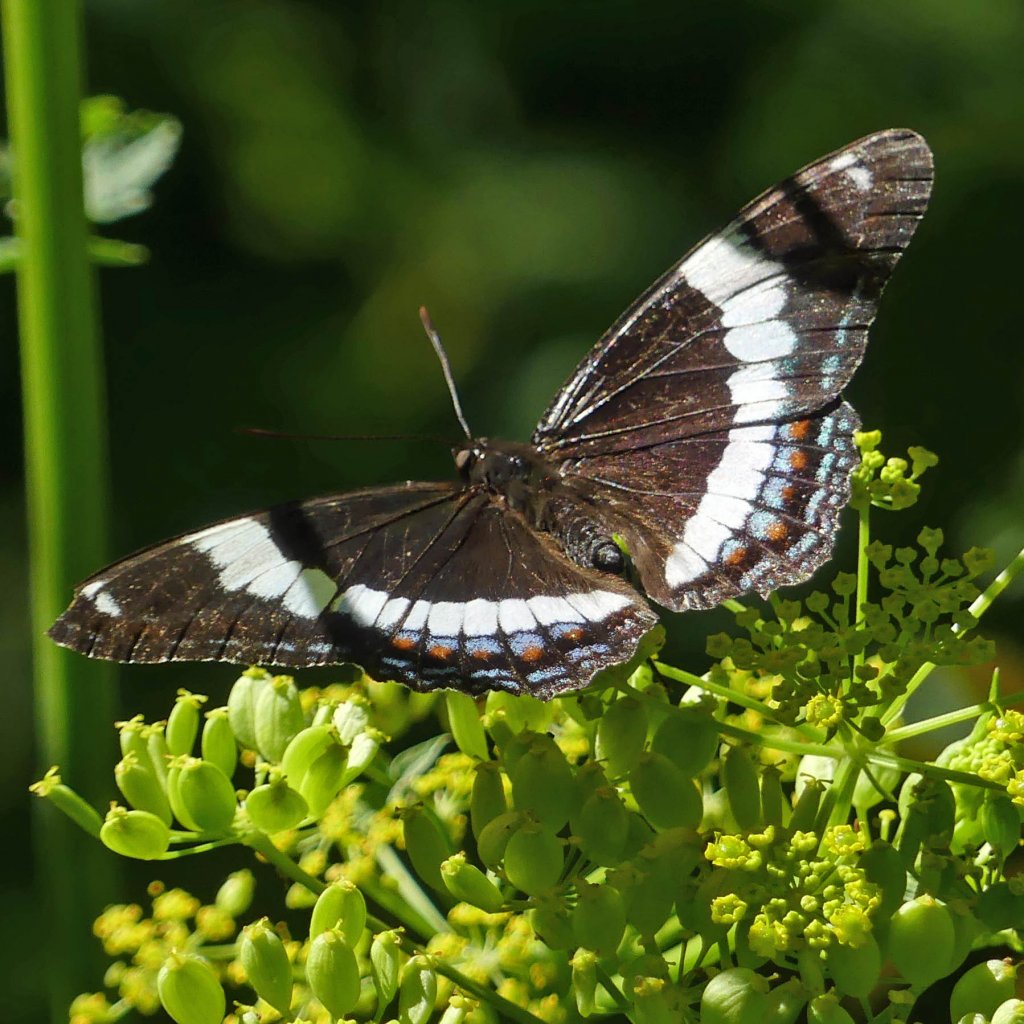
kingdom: Animalia
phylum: Arthropoda
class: Insecta
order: Lepidoptera
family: Nymphalidae
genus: Limenitis
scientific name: Limenitis arthemis
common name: Red-spotted Admiral
